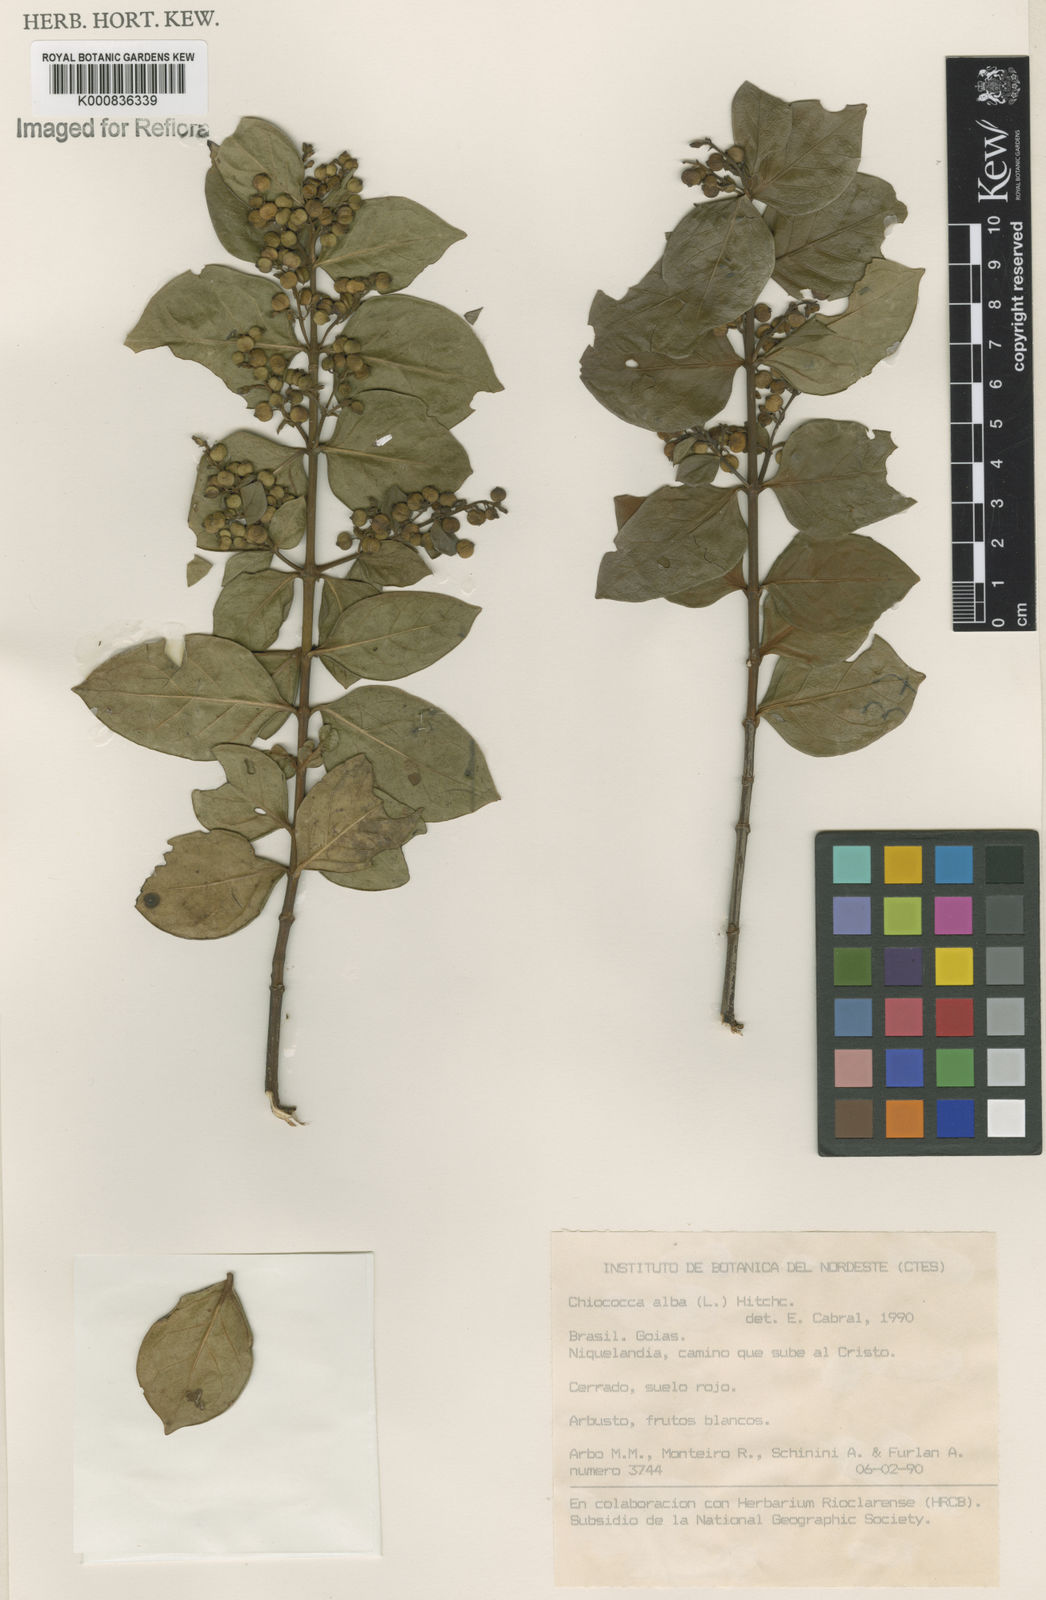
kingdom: Plantae
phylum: Tracheophyta
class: Magnoliopsida
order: Gentianales
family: Rubiaceae
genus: Chiococca
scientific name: Chiococca alba
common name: Snowberry
